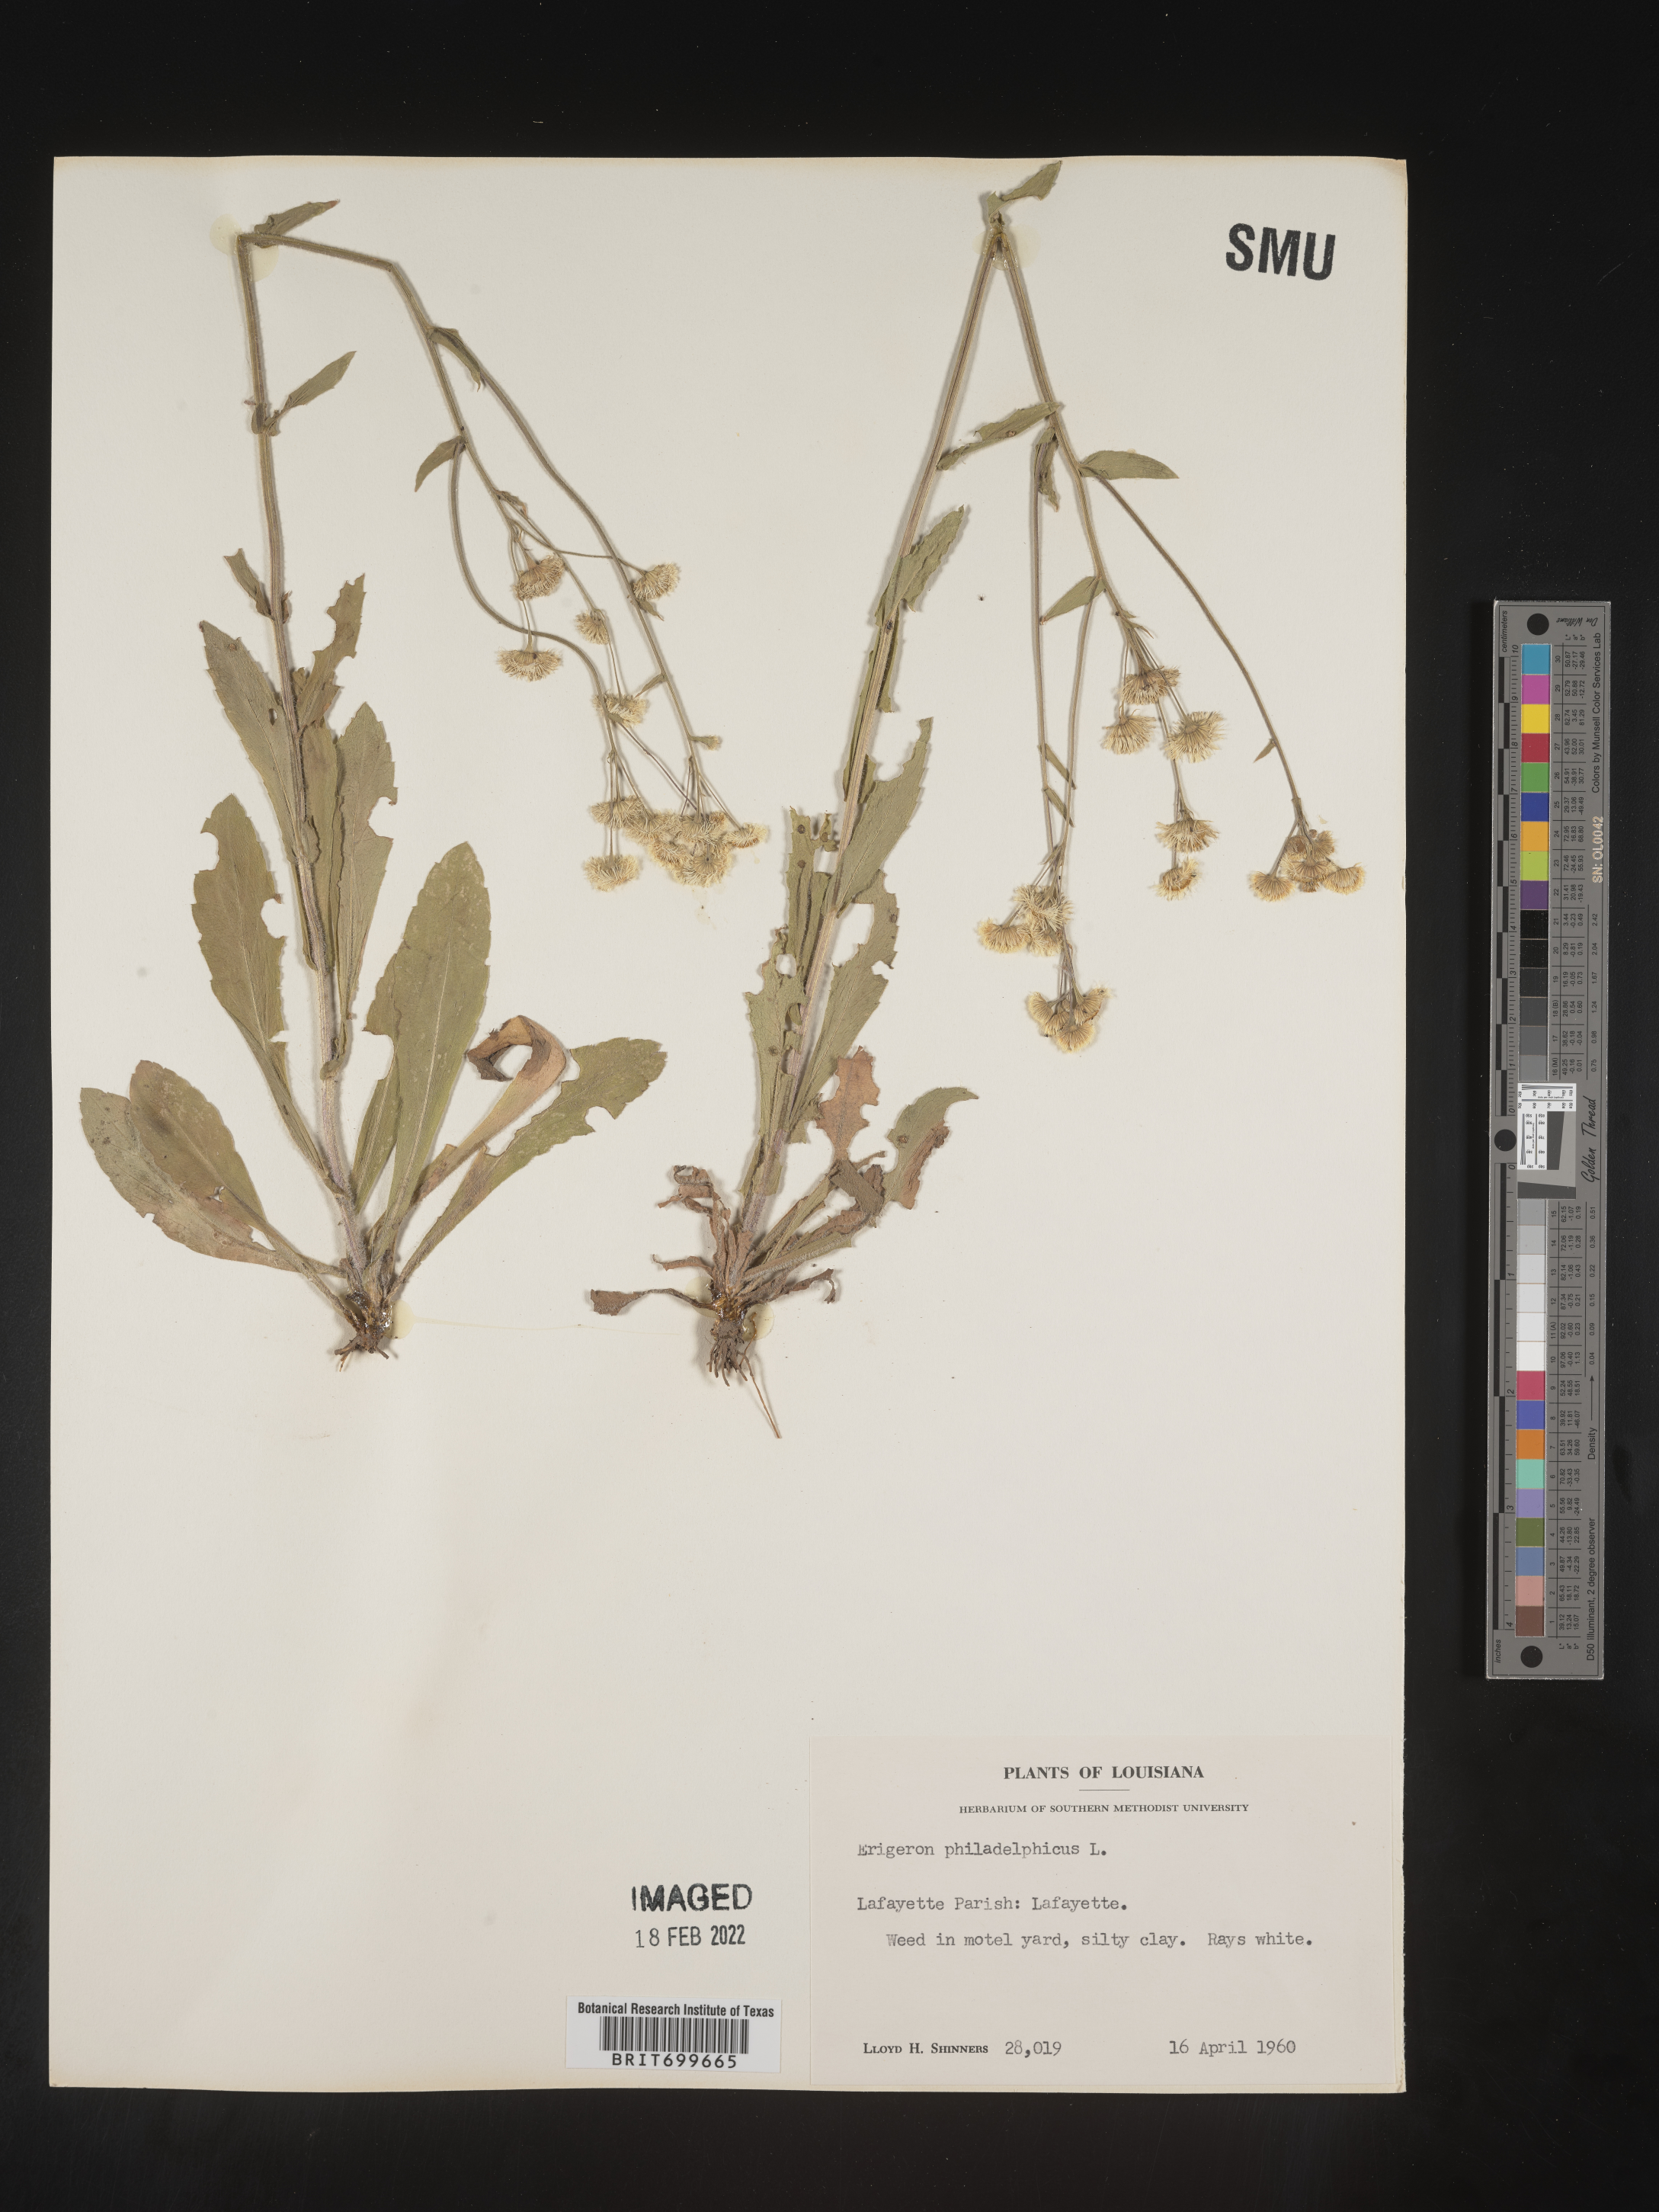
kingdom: Plantae
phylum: Tracheophyta
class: Magnoliopsida
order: Asterales
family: Asteraceae
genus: Erigeron
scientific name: Erigeron philadelphicus
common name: Robin's-plantain
